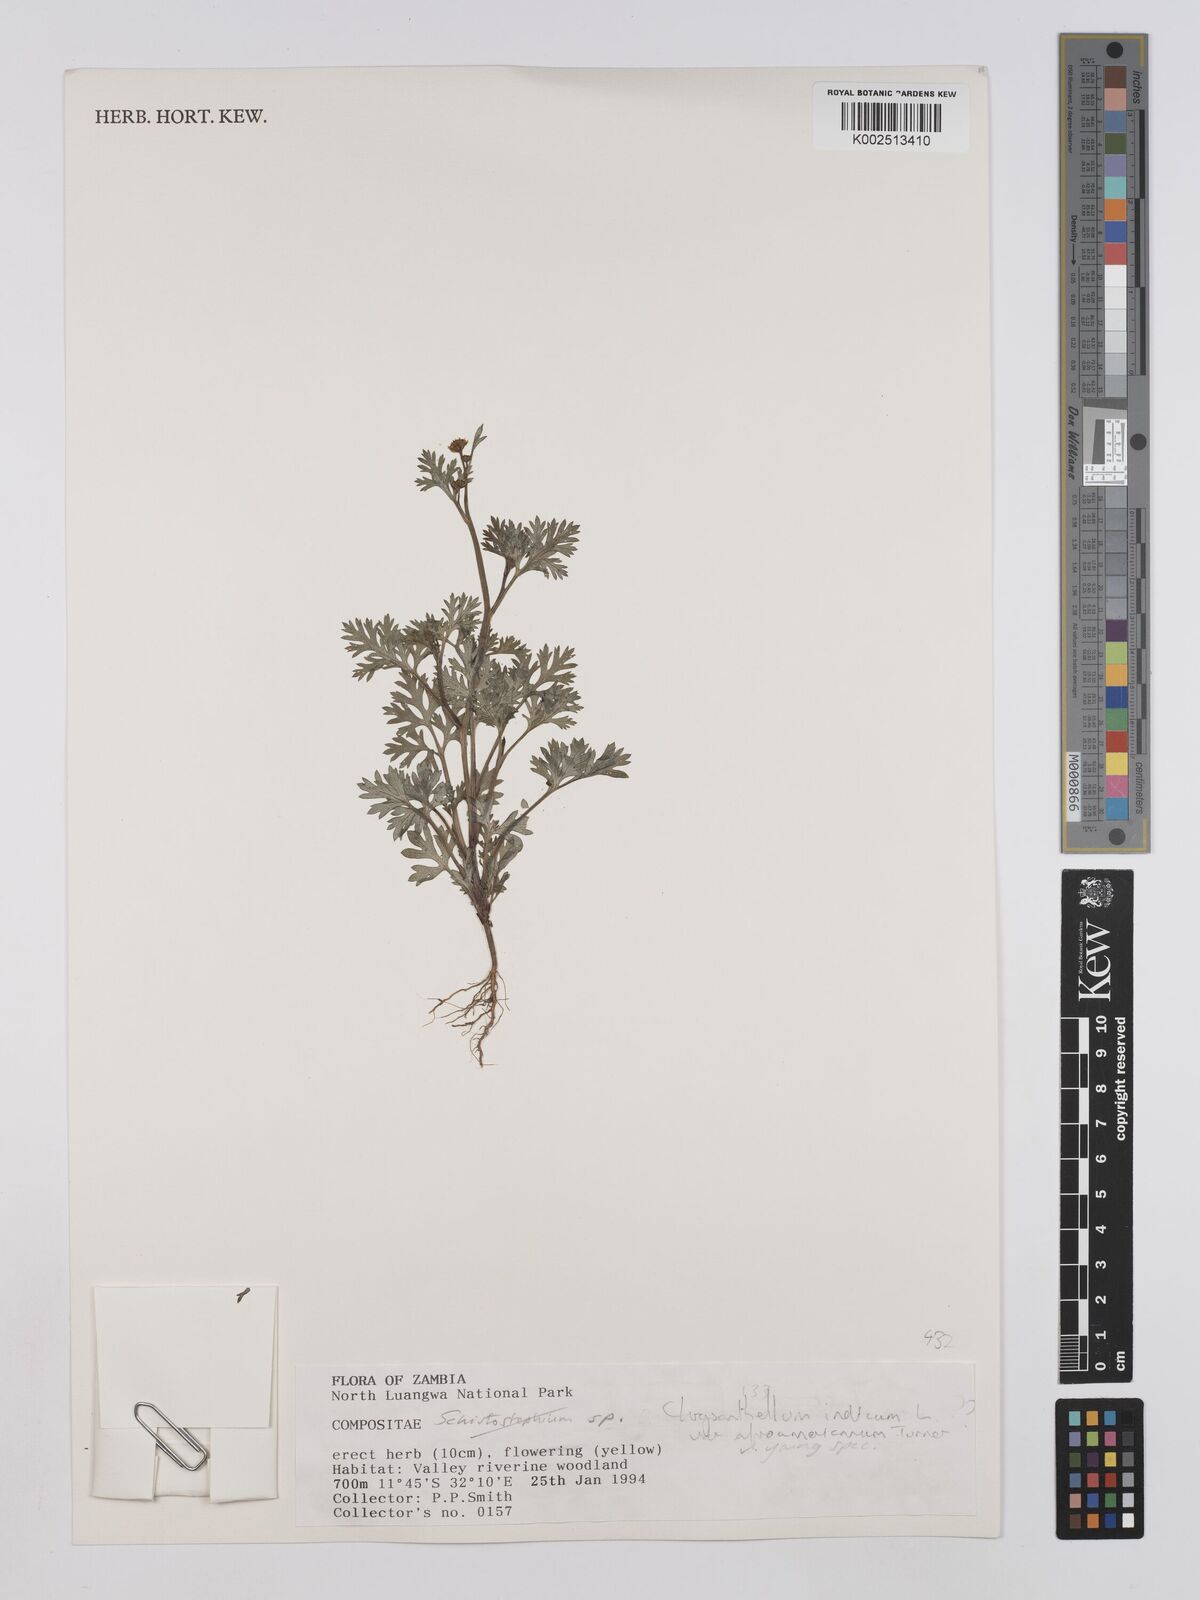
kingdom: Plantae
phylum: Tracheophyta
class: Magnoliopsida
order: Asterales
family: Asteraceae
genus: Chrysanthellum
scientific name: Chrysanthellum indicum
